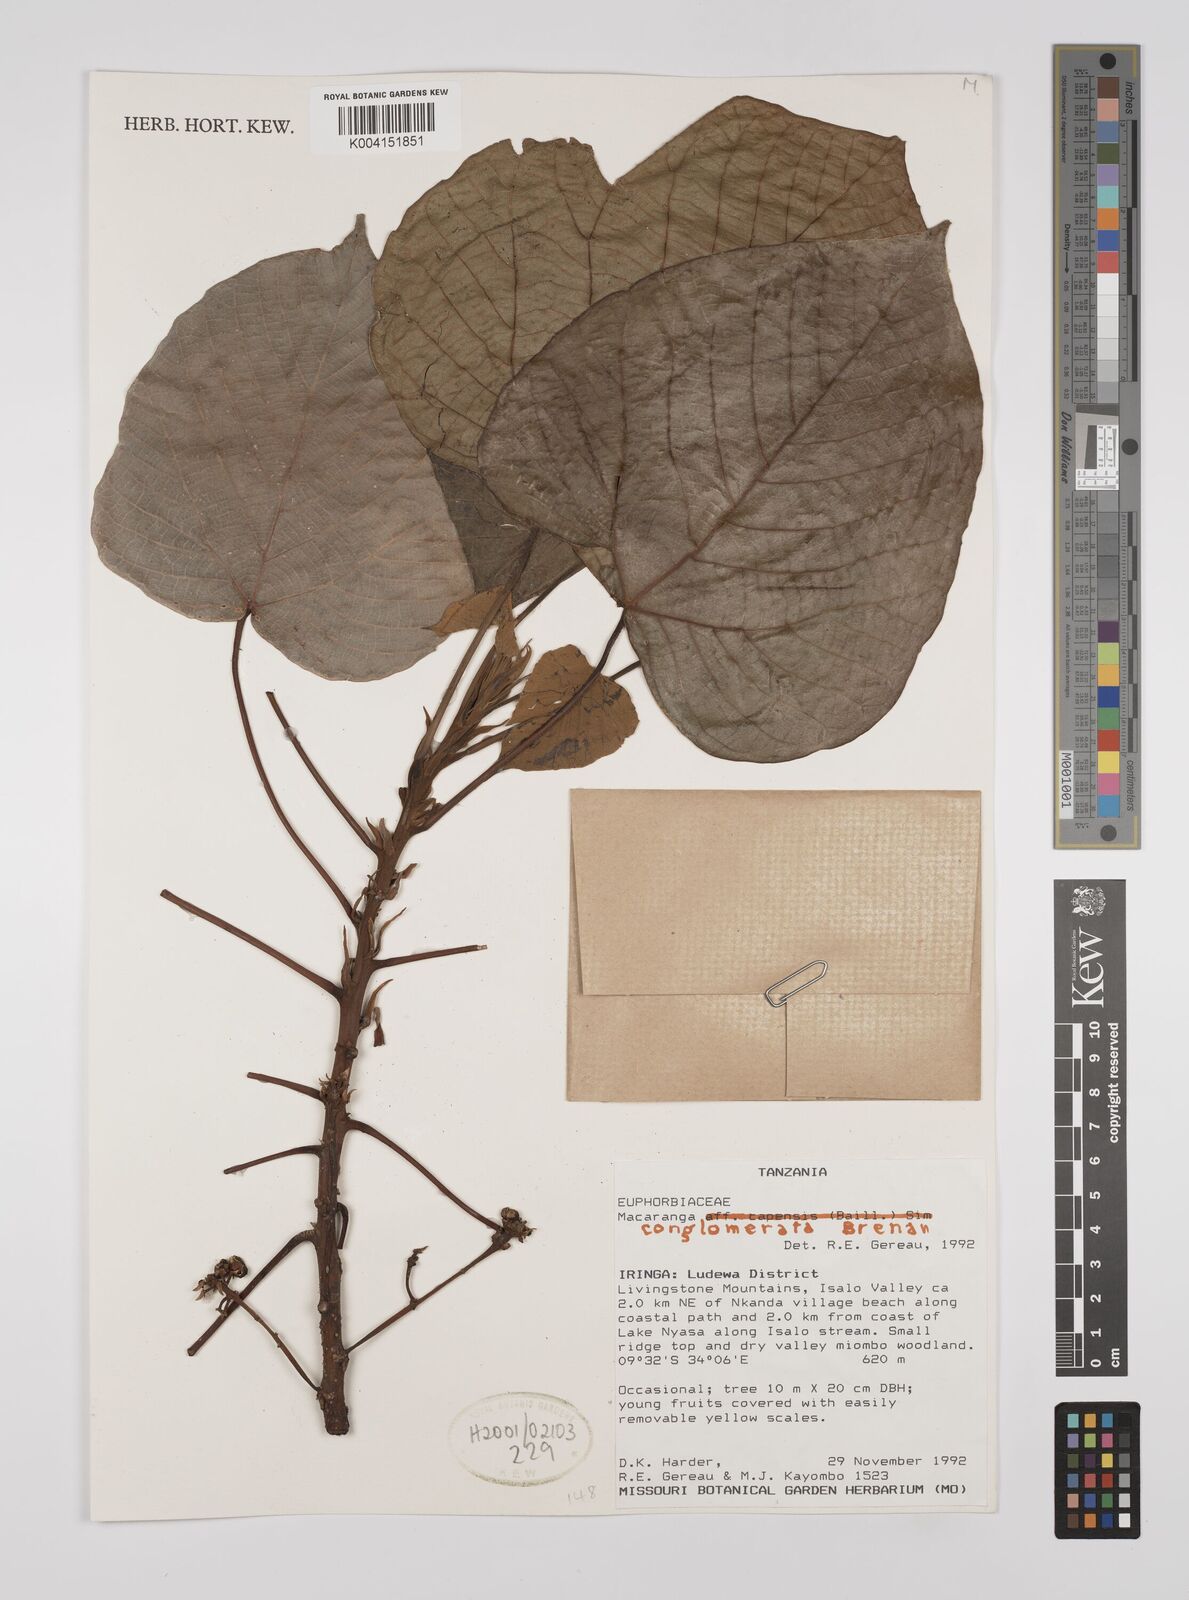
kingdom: Plantae
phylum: Tracheophyta
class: Magnoliopsida
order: Malpighiales
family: Euphorbiaceae
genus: Macaranga
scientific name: Macaranga conglomerata
